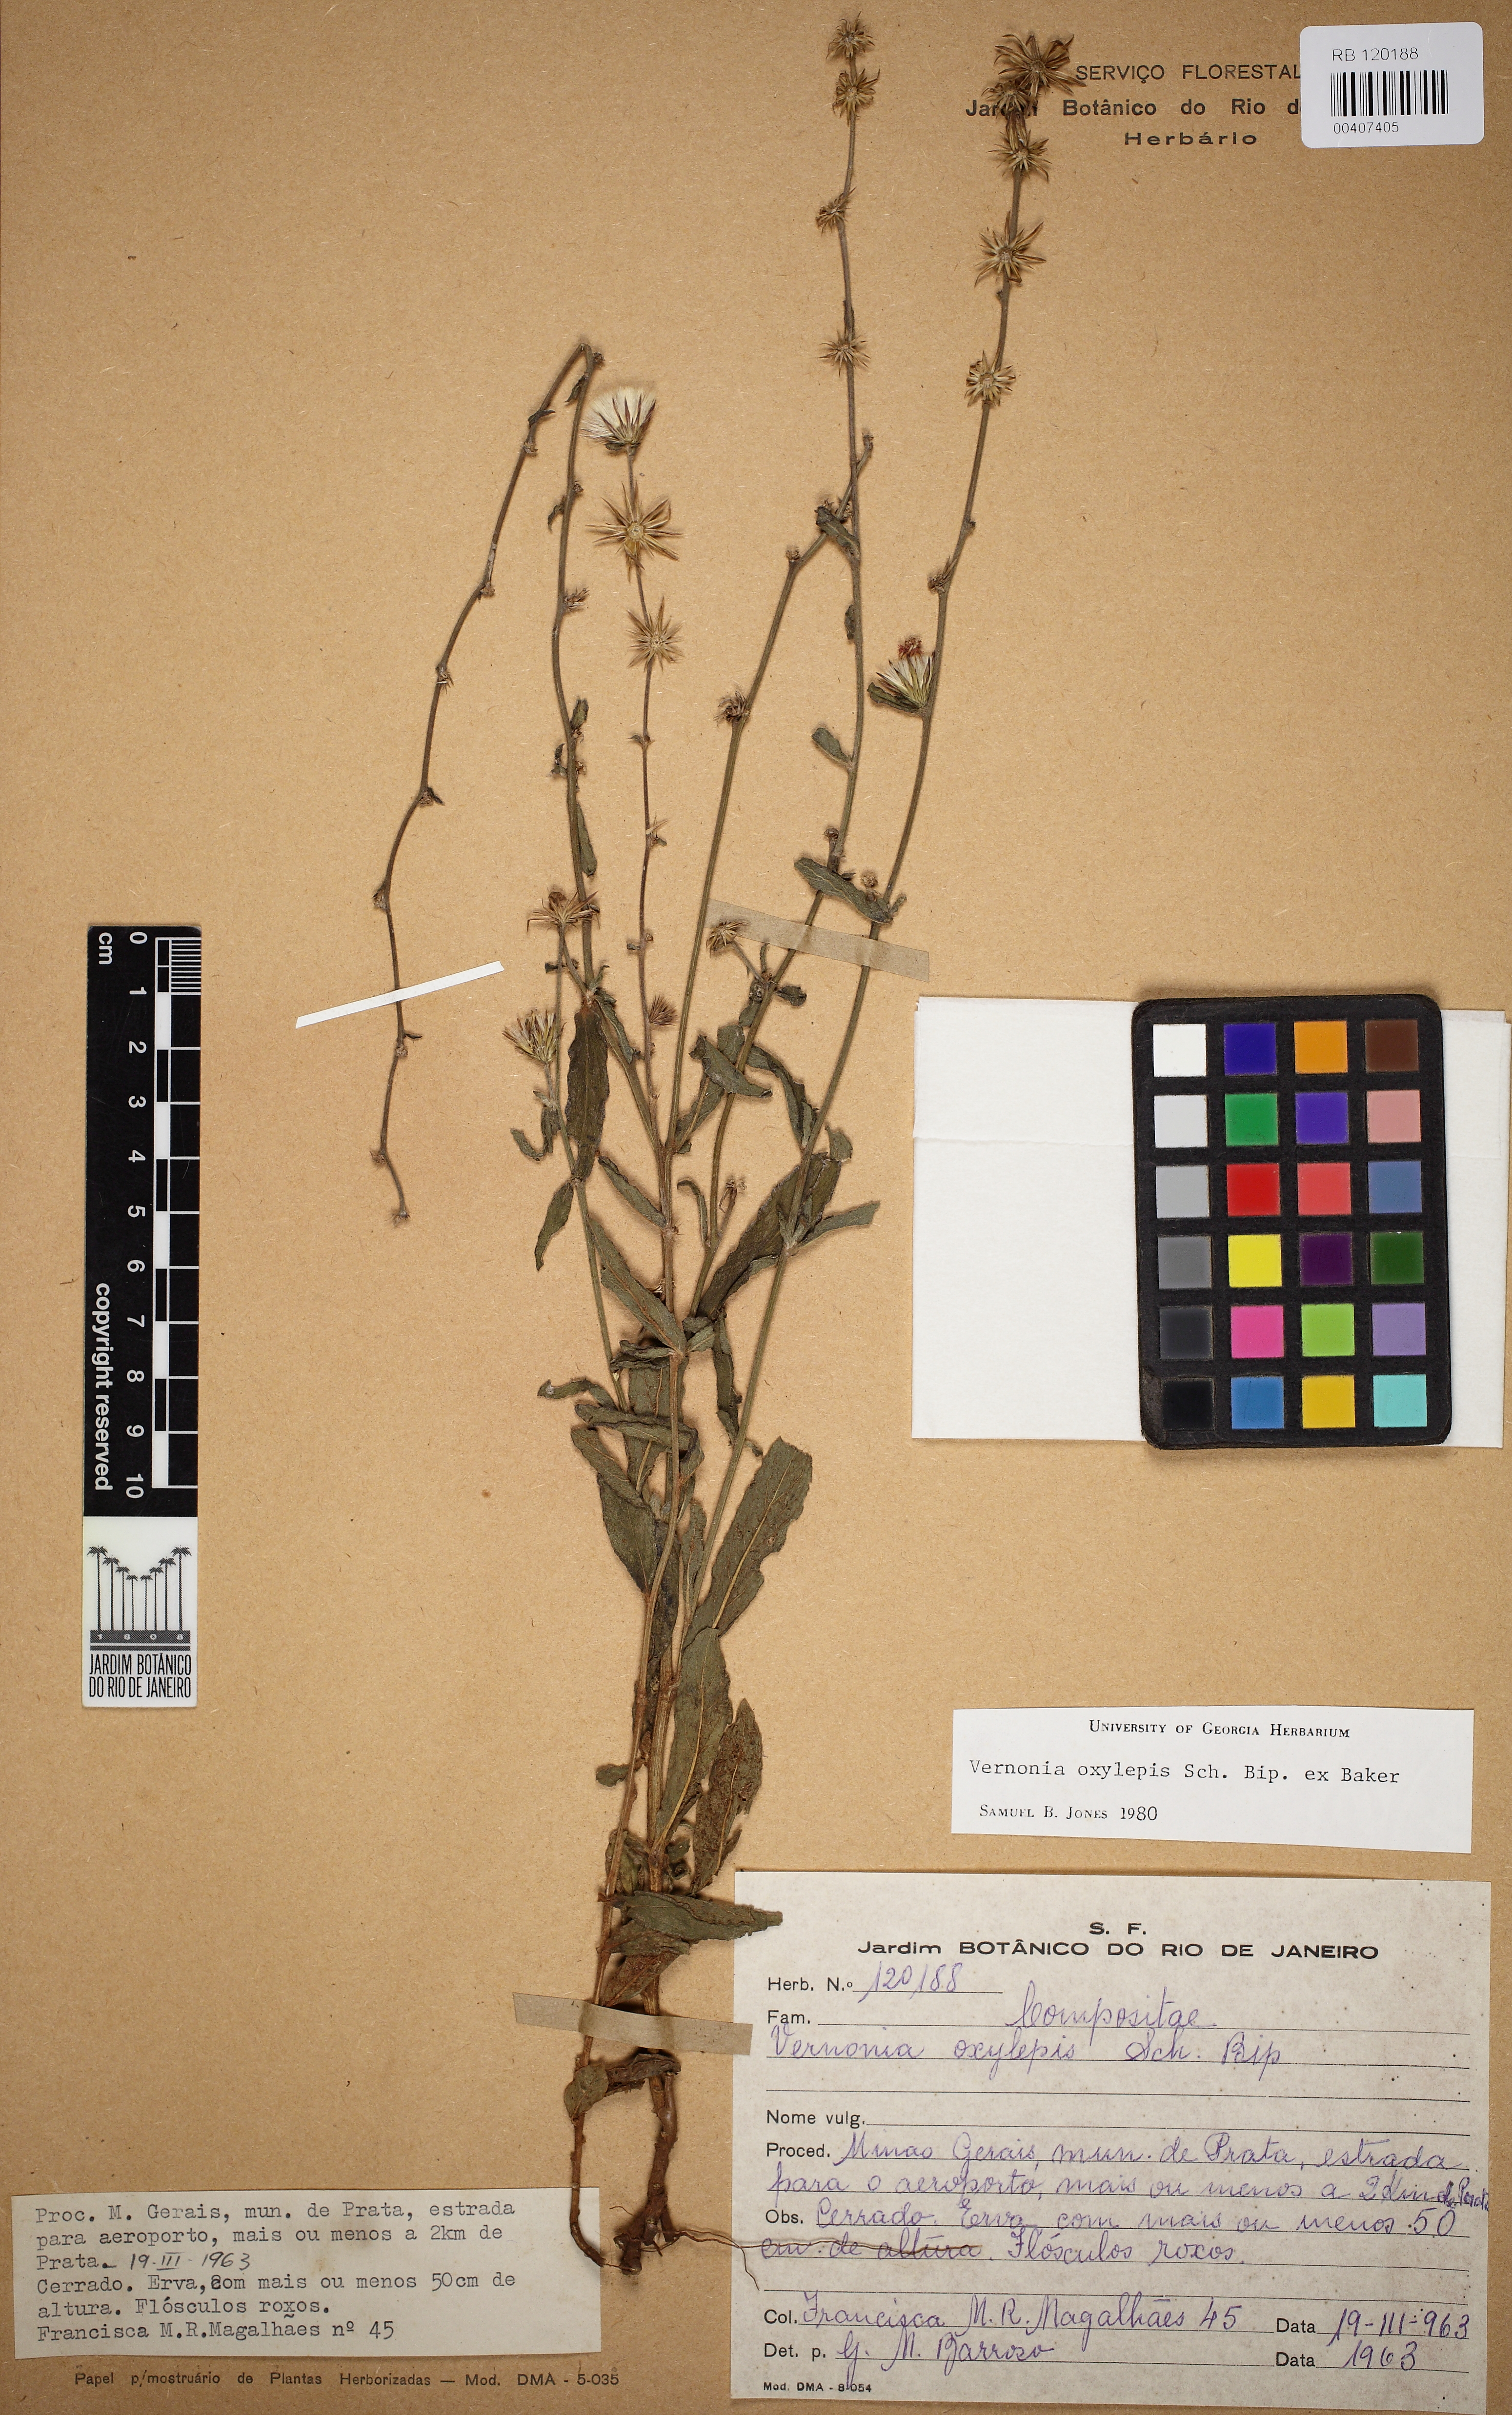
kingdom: Plantae
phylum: Tracheophyta
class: Magnoliopsida
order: Asterales
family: Asteraceae
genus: Lepidaploa
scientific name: Lepidaploa psilostachya
